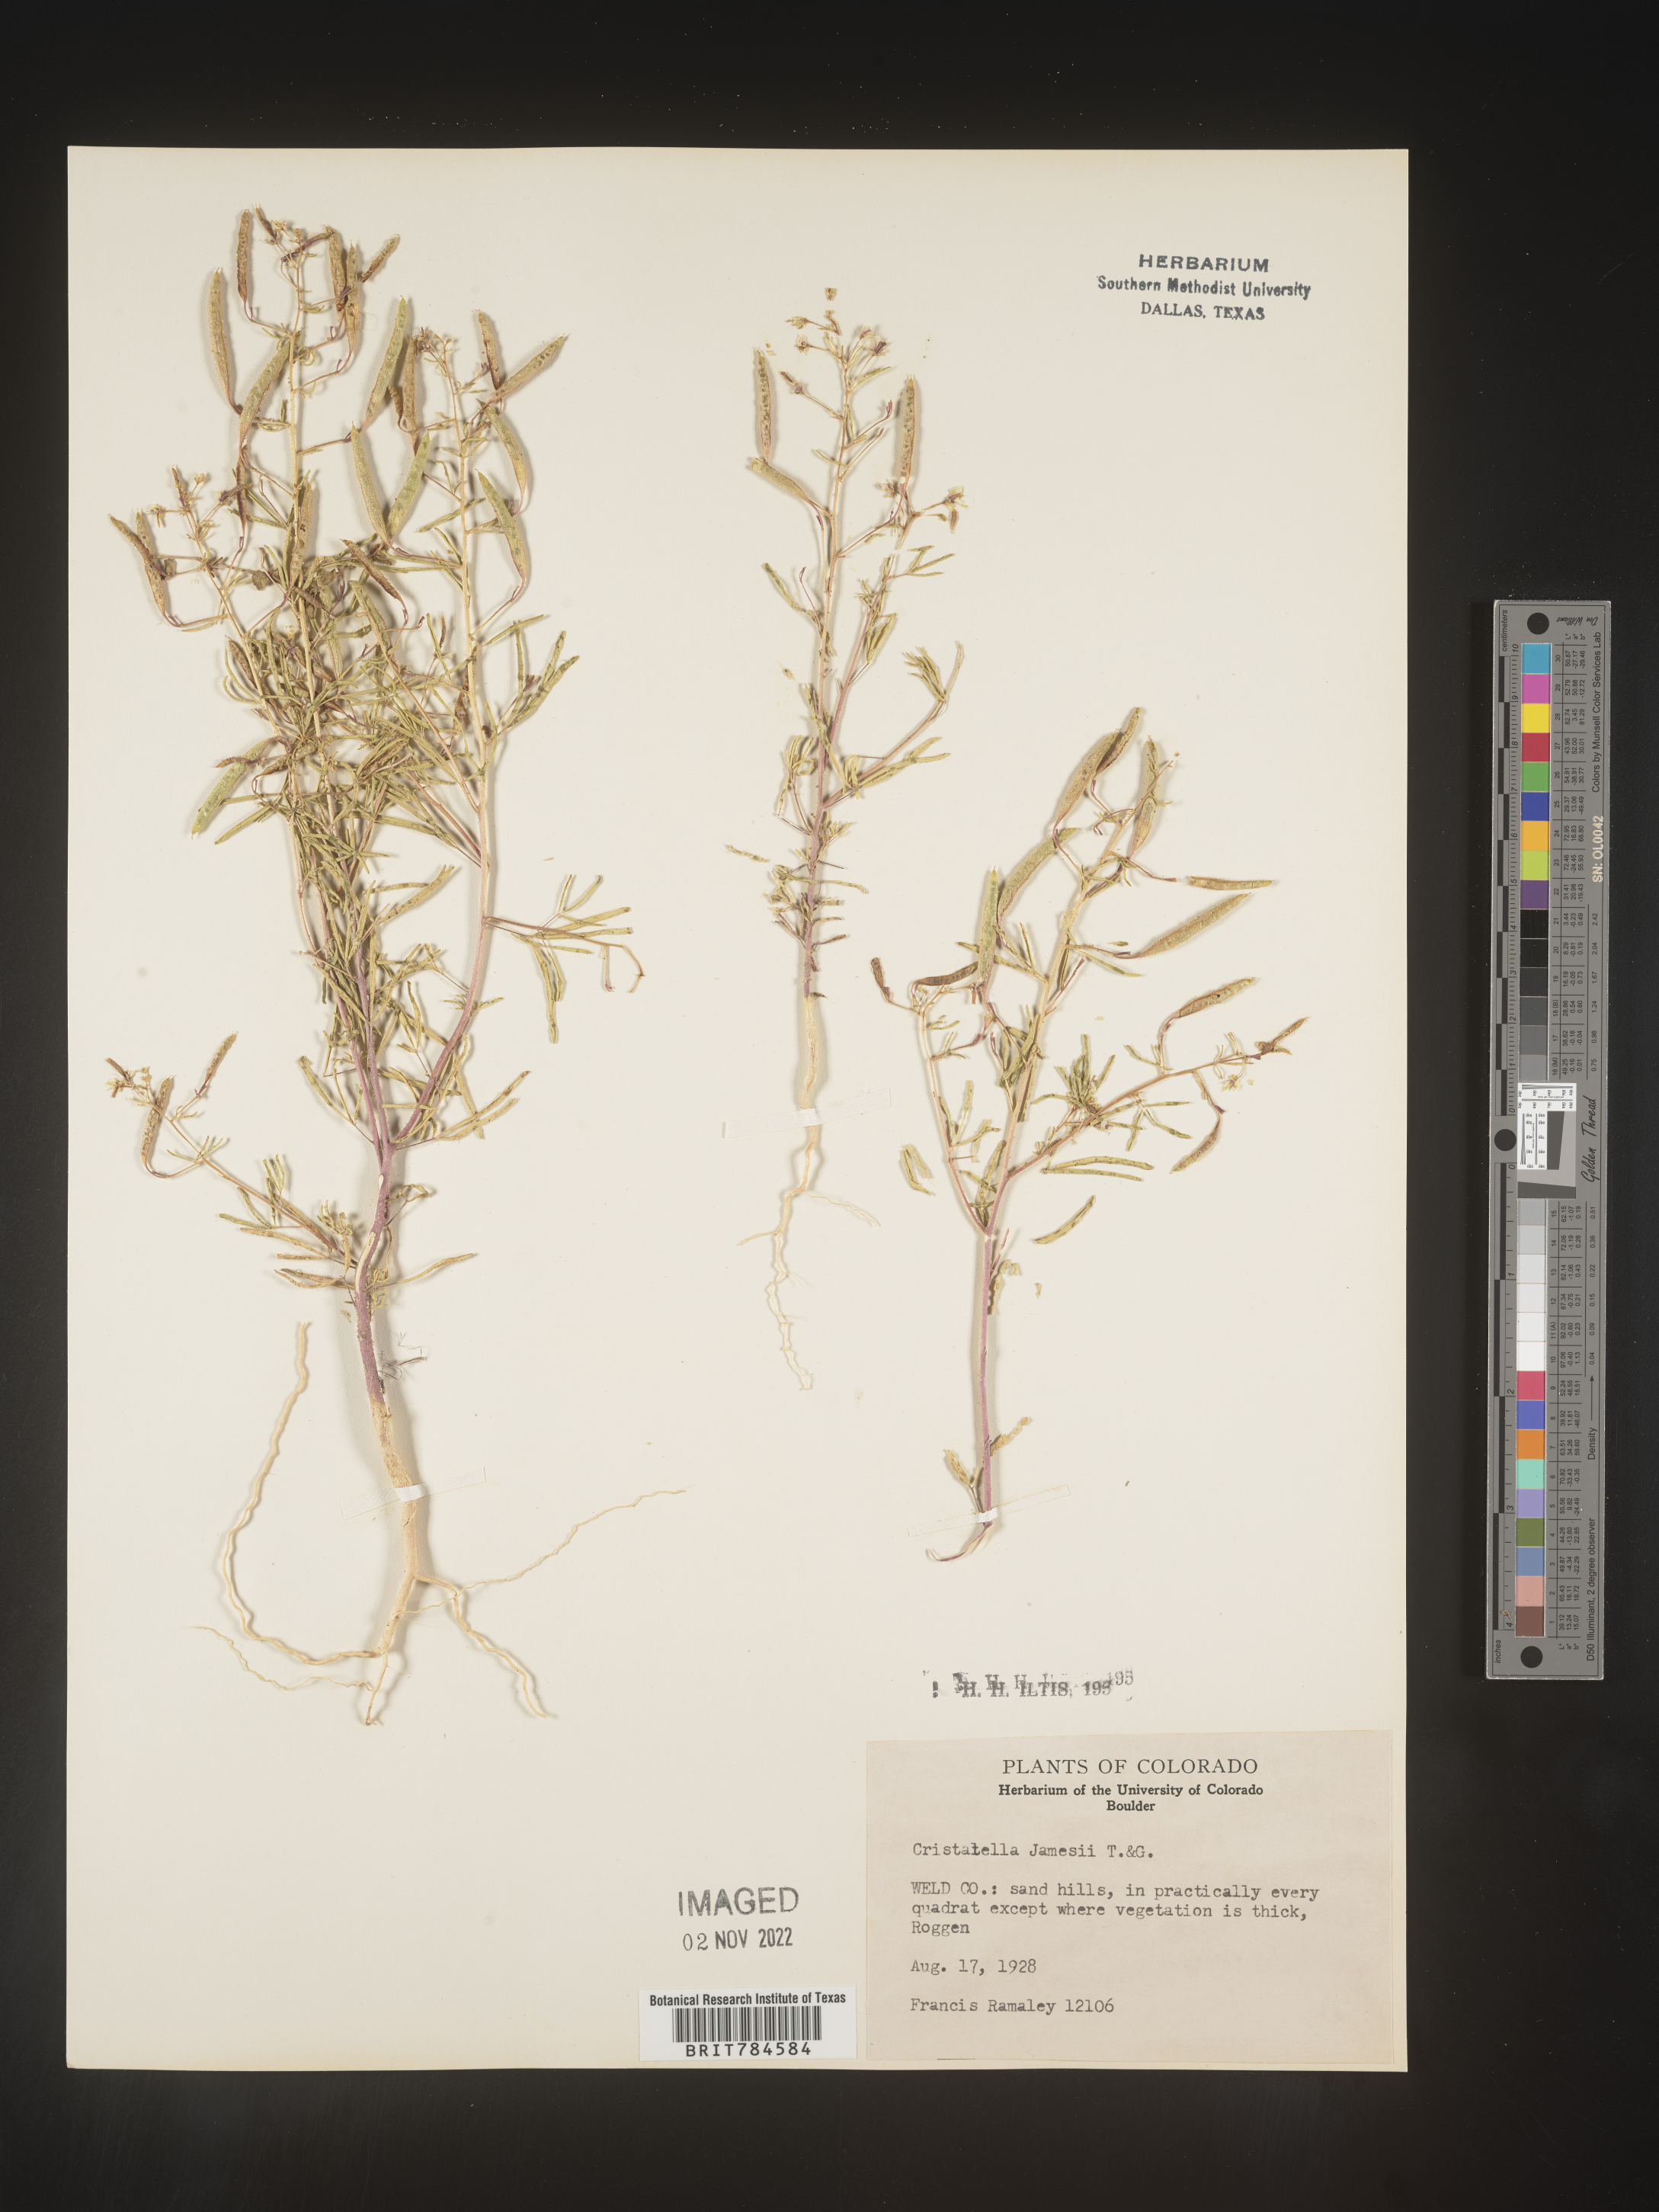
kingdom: Plantae
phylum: Tracheophyta
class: Magnoliopsida
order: Brassicales
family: Cleomaceae
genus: Polanisia
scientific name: Polanisia
